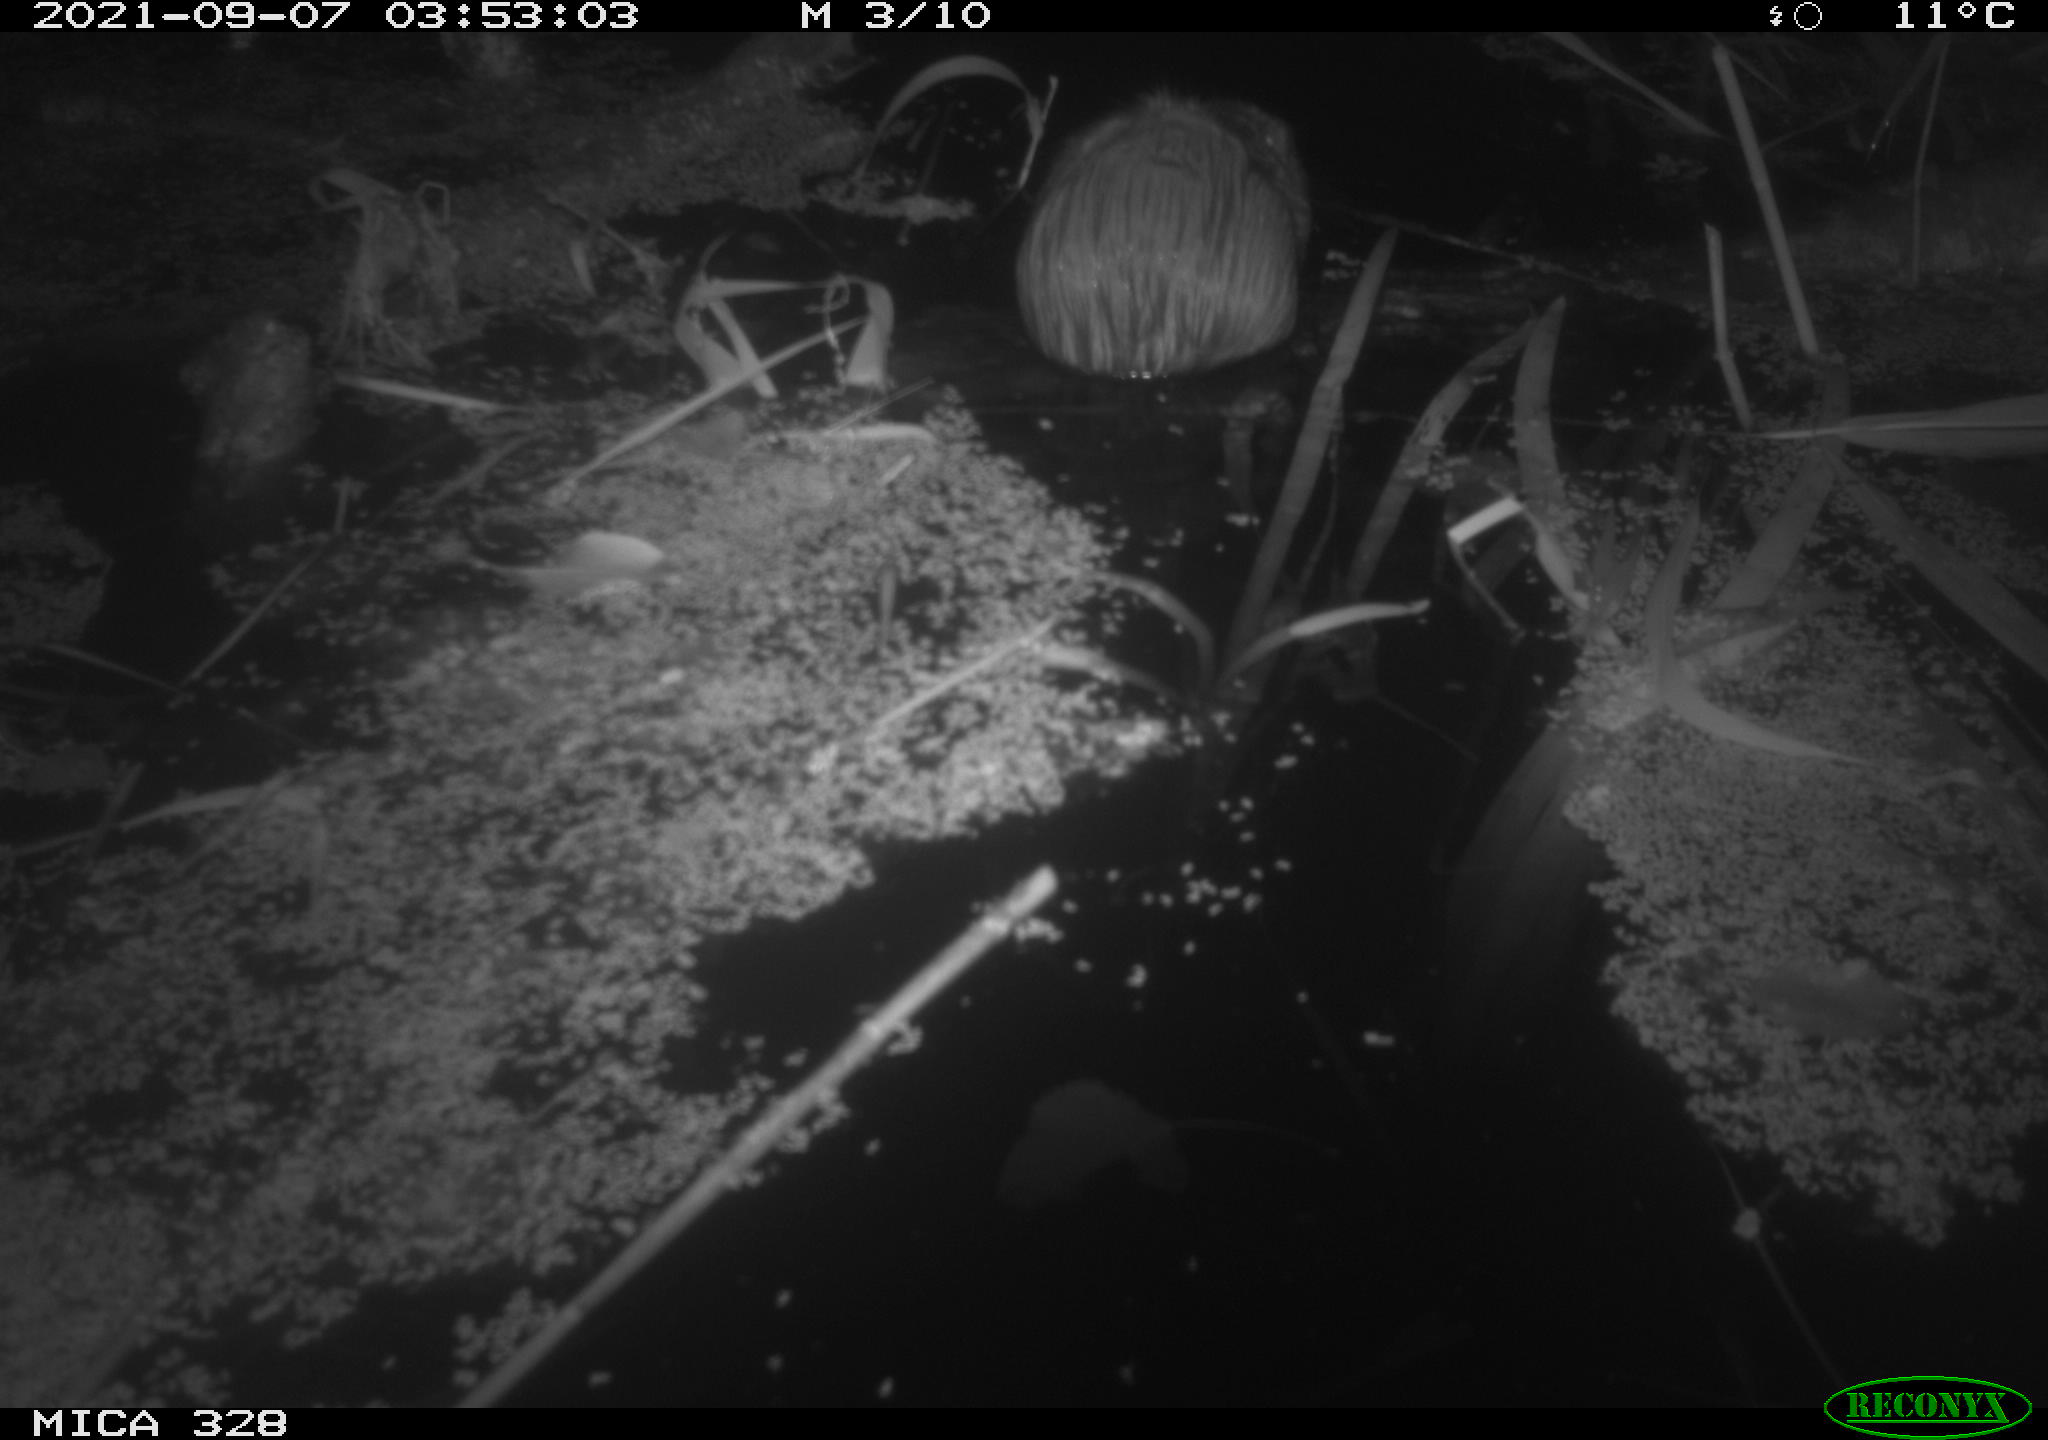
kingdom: Animalia
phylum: Chordata
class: Mammalia
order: Rodentia
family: Cricetidae
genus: Ondatra
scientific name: Ondatra zibethicus
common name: Muskrat
